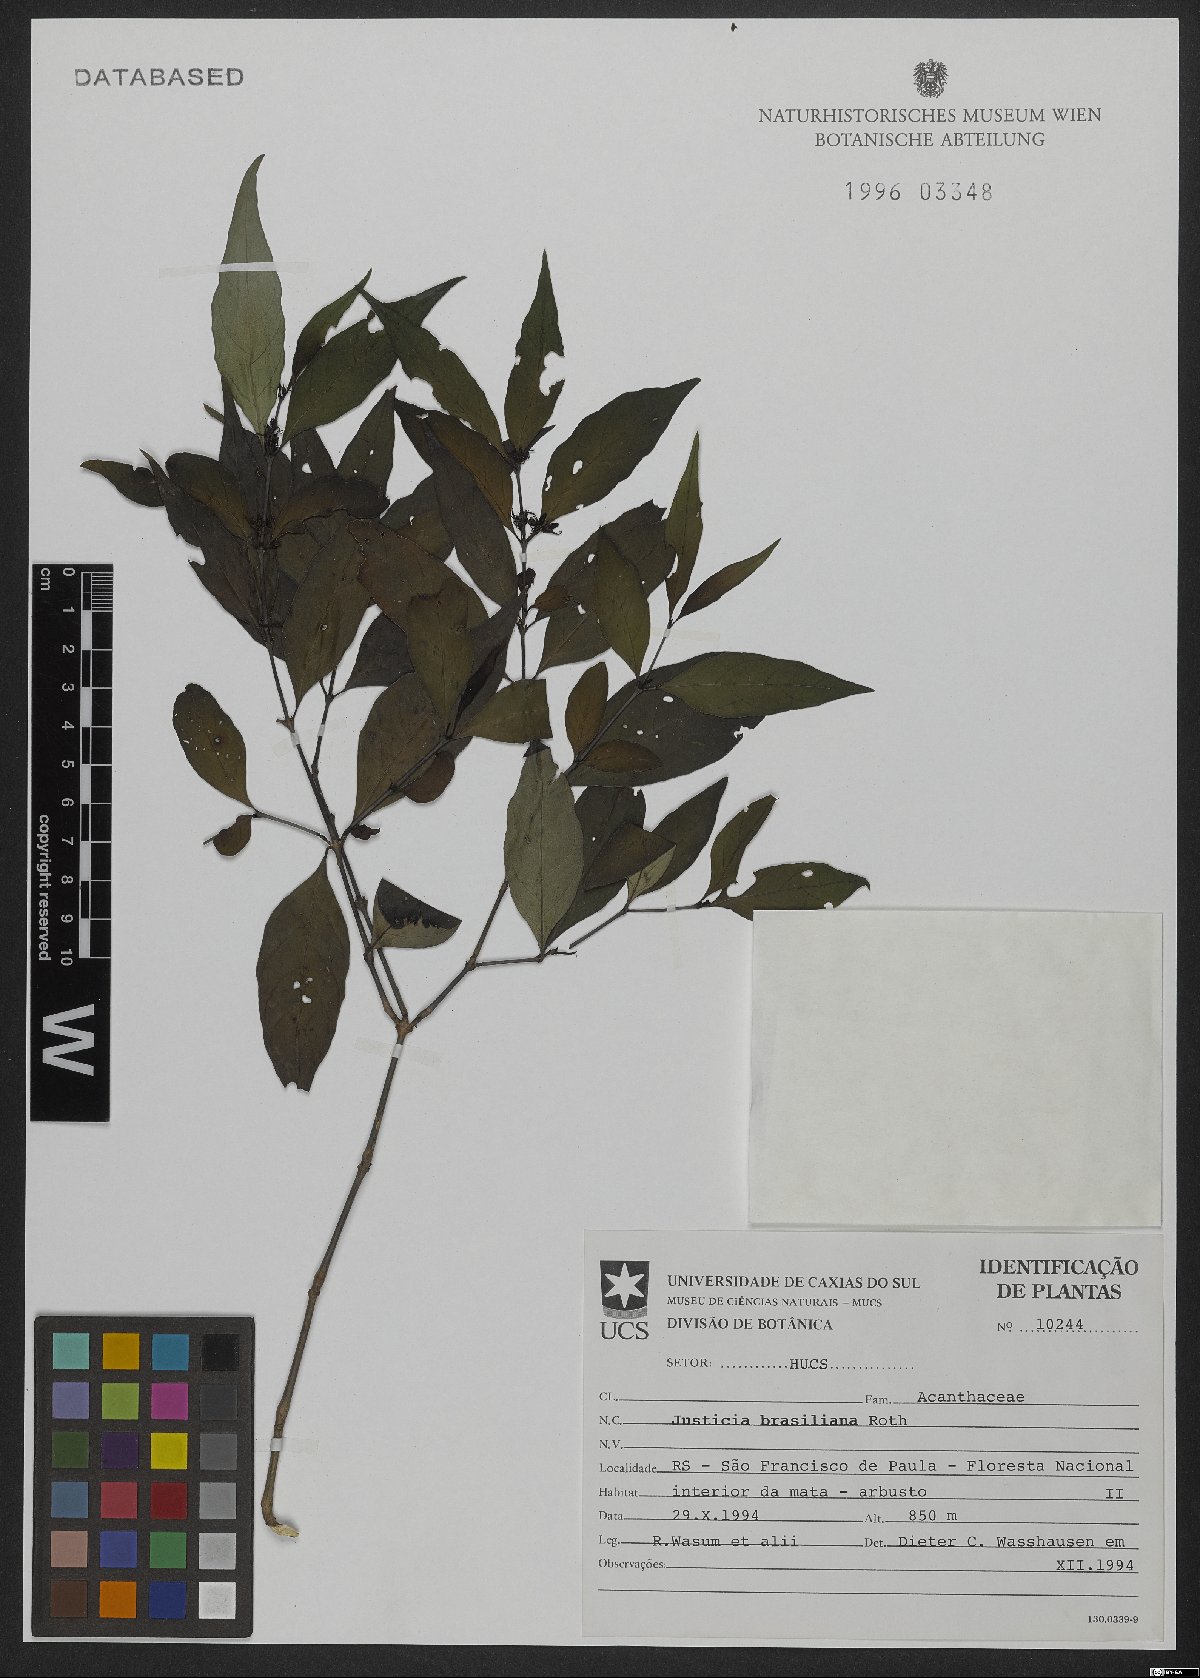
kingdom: Plantae
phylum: Tracheophyta
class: Magnoliopsida
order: Lamiales
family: Acanthaceae
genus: Justicia
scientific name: Justicia brasiliana
